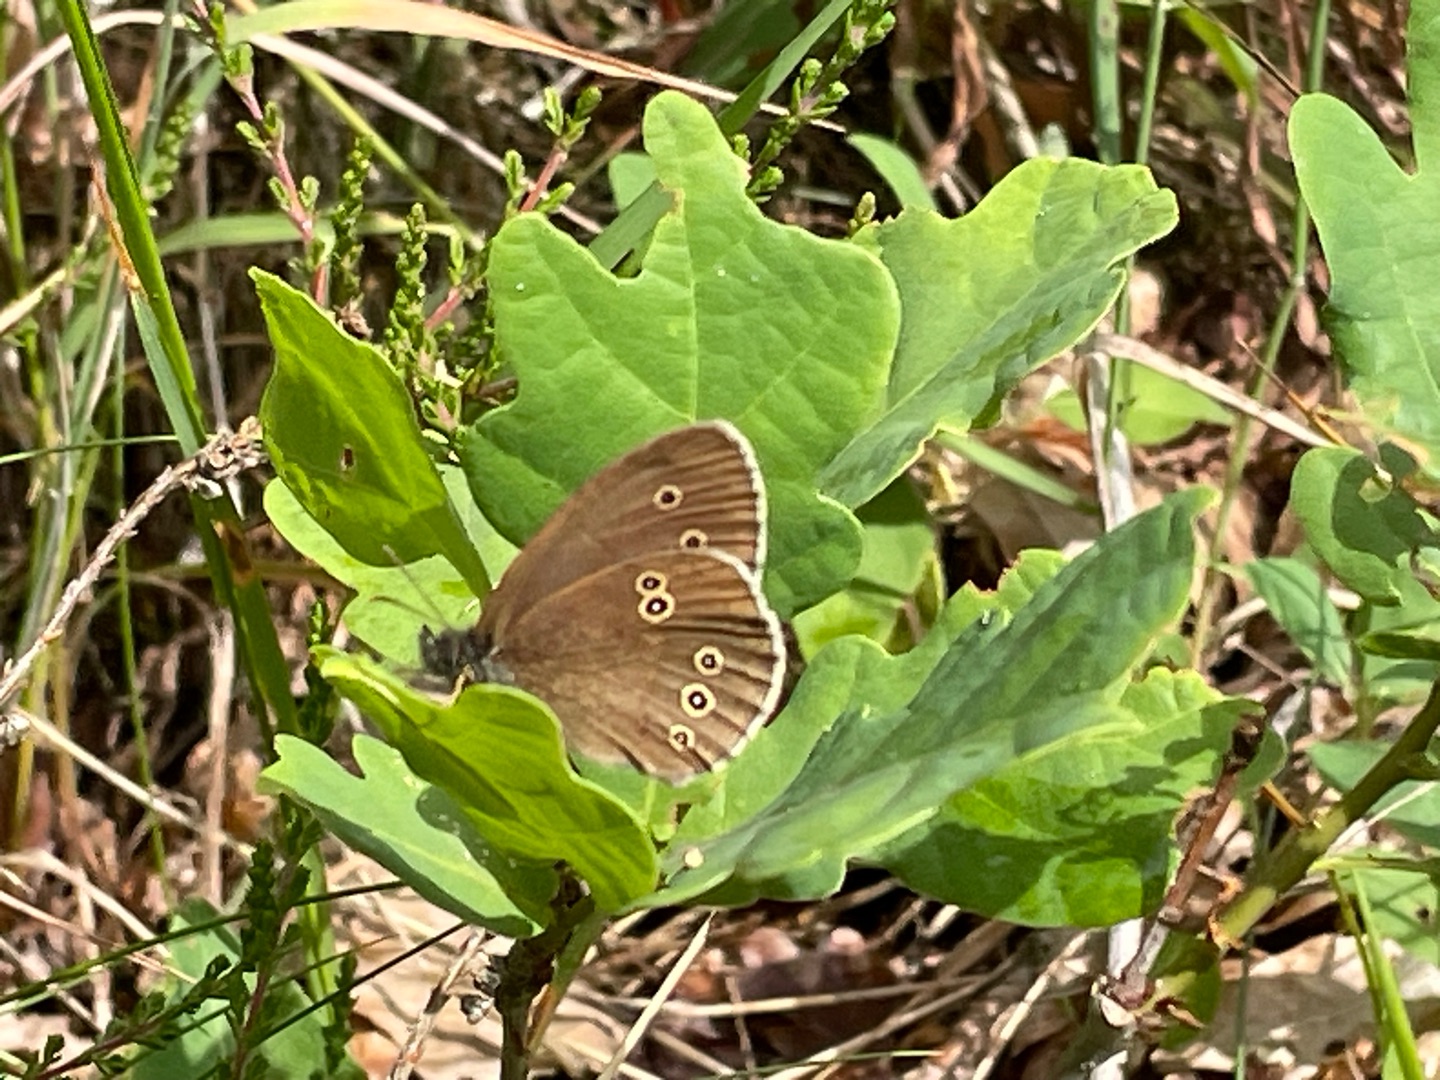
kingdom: Animalia
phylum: Arthropoda
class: Insecta
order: Lepidoptera
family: Nymphalidae
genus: Aphantopus
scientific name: Aphantopus hyperantus
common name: Engrandøje
